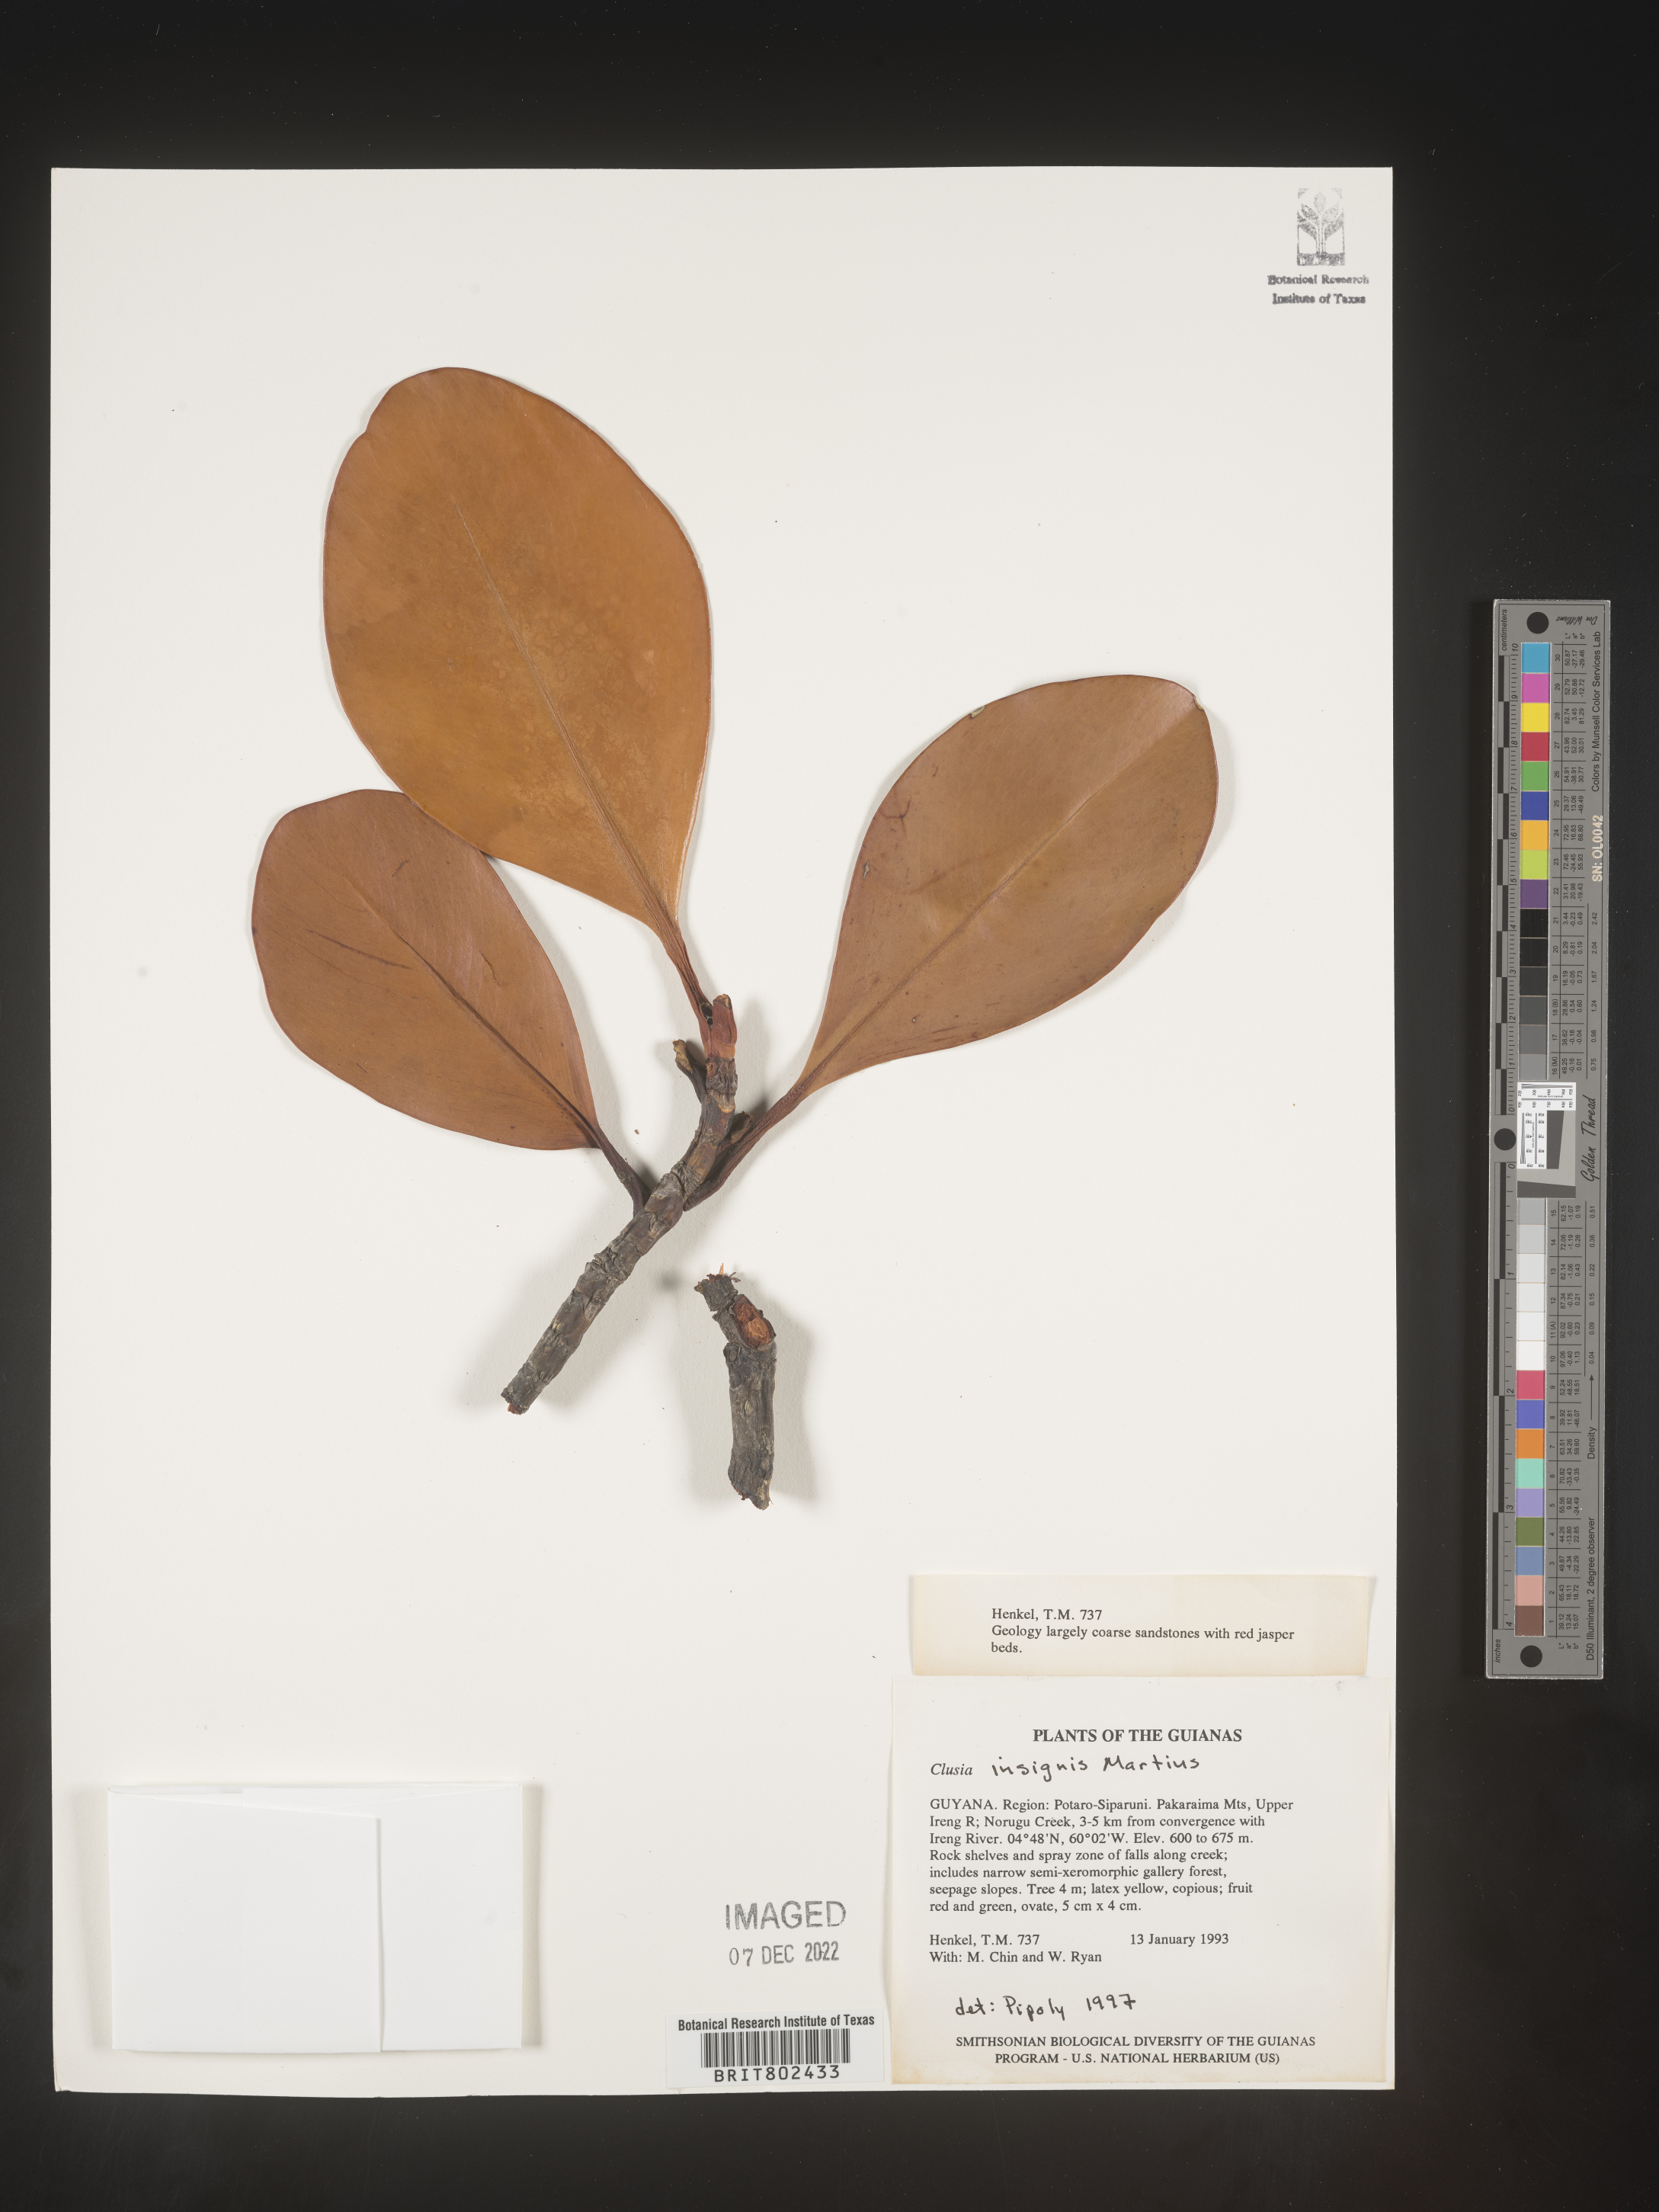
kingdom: Plantae
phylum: Tracheophyta
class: Magnoliopsida
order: Malpighiales
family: Clusiaceae
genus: Clusia
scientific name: Clusia insignis
